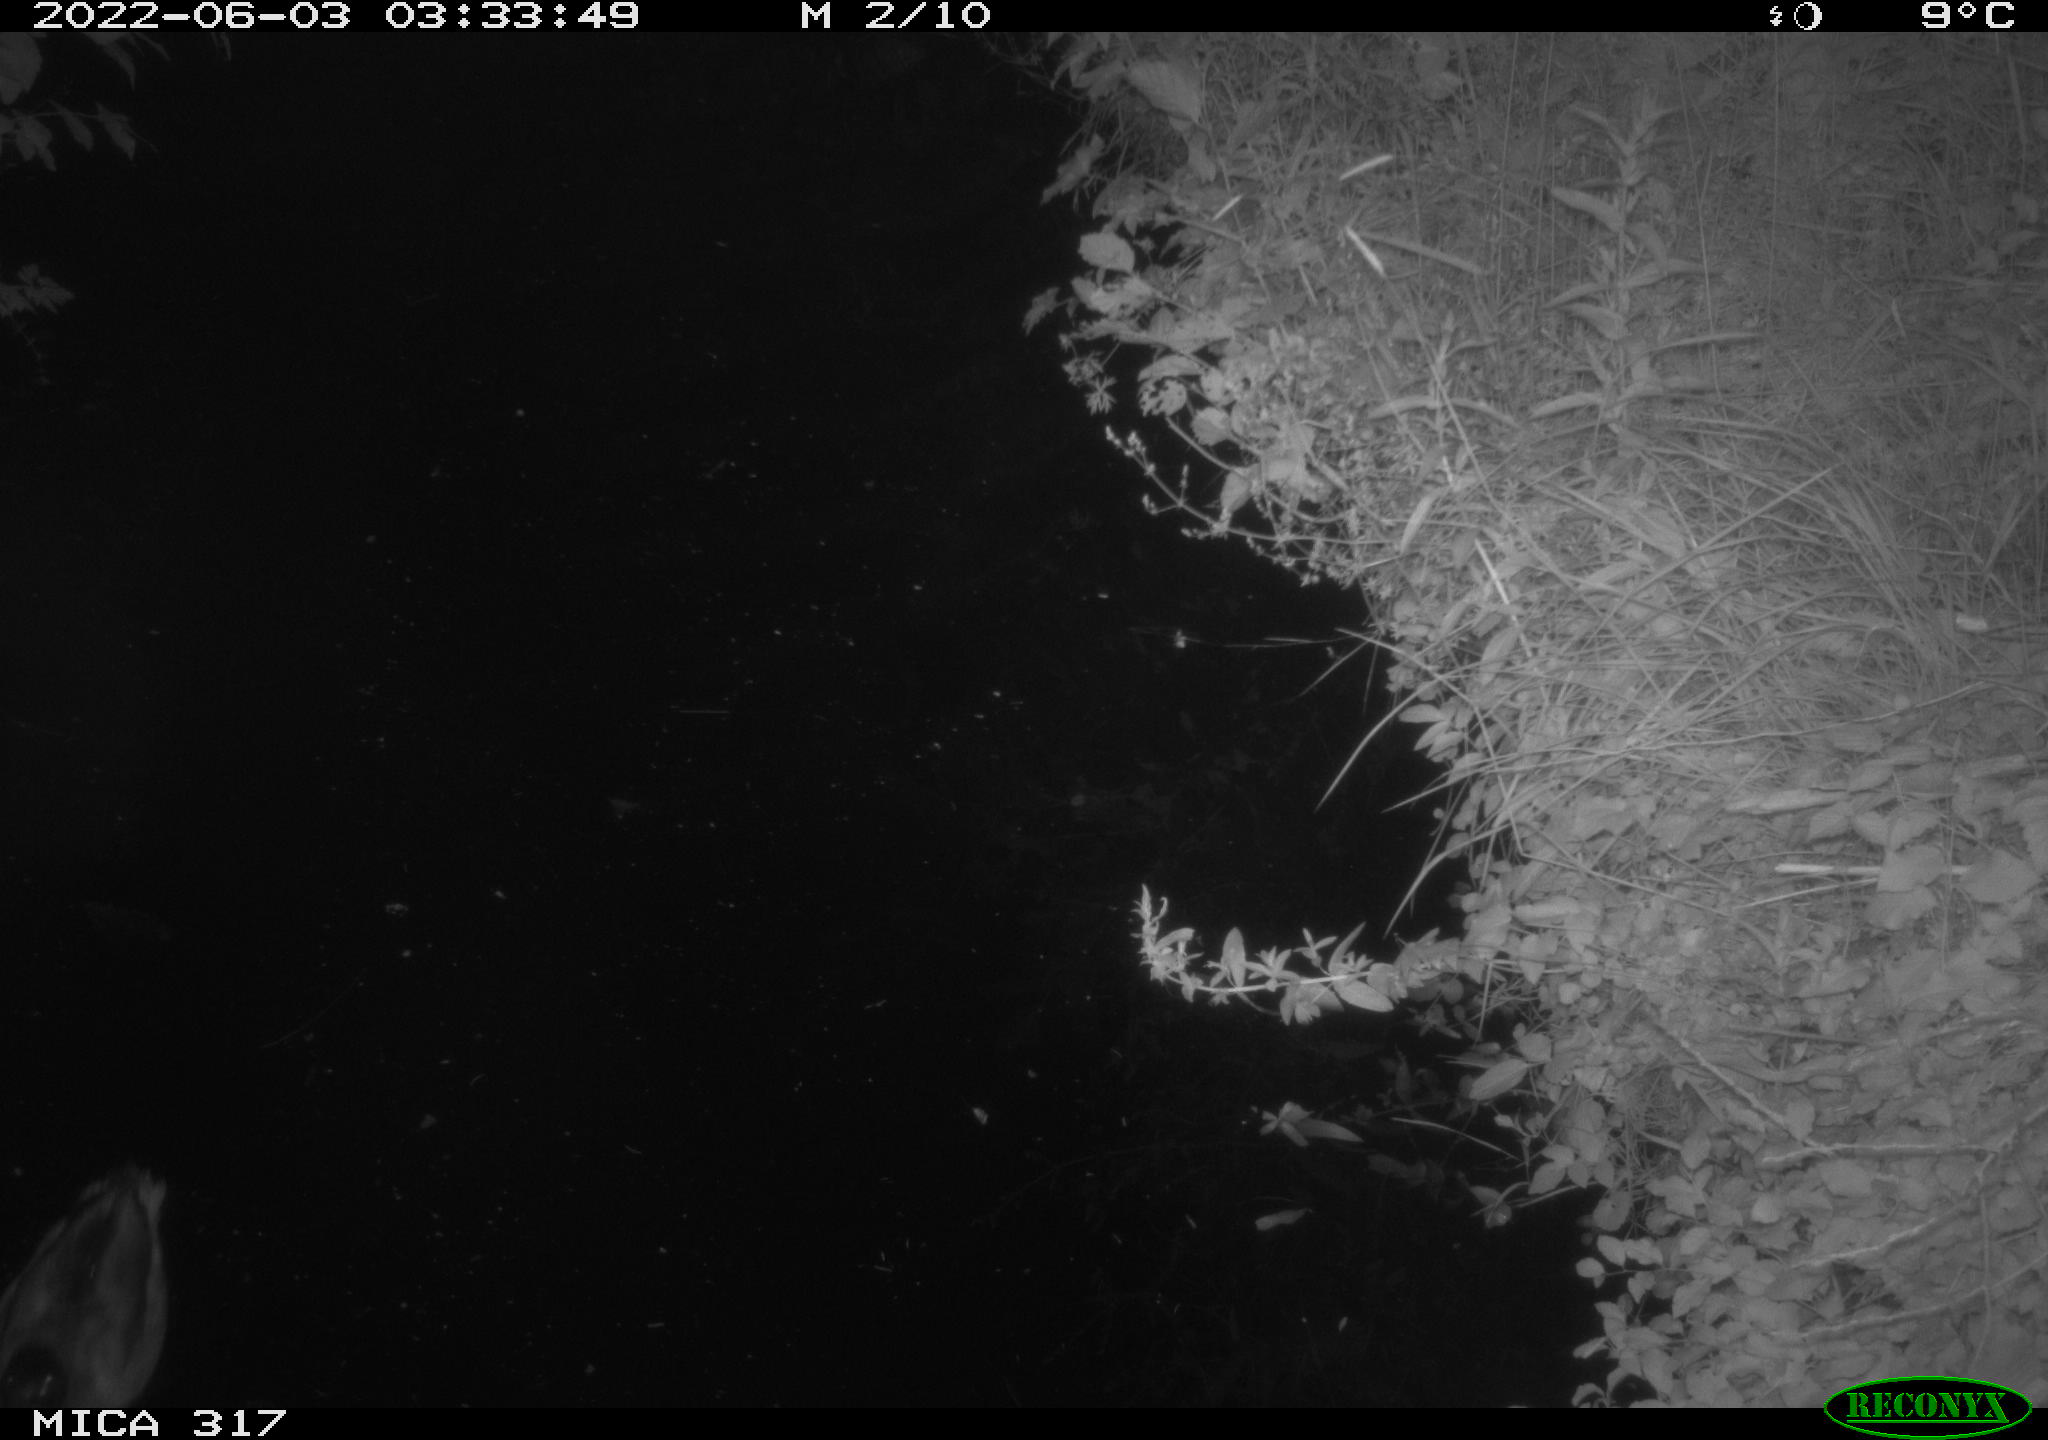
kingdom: Animalia
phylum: Chordata
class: Aves
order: Anseriformes
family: Anatidae
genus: Anas
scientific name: Anas
